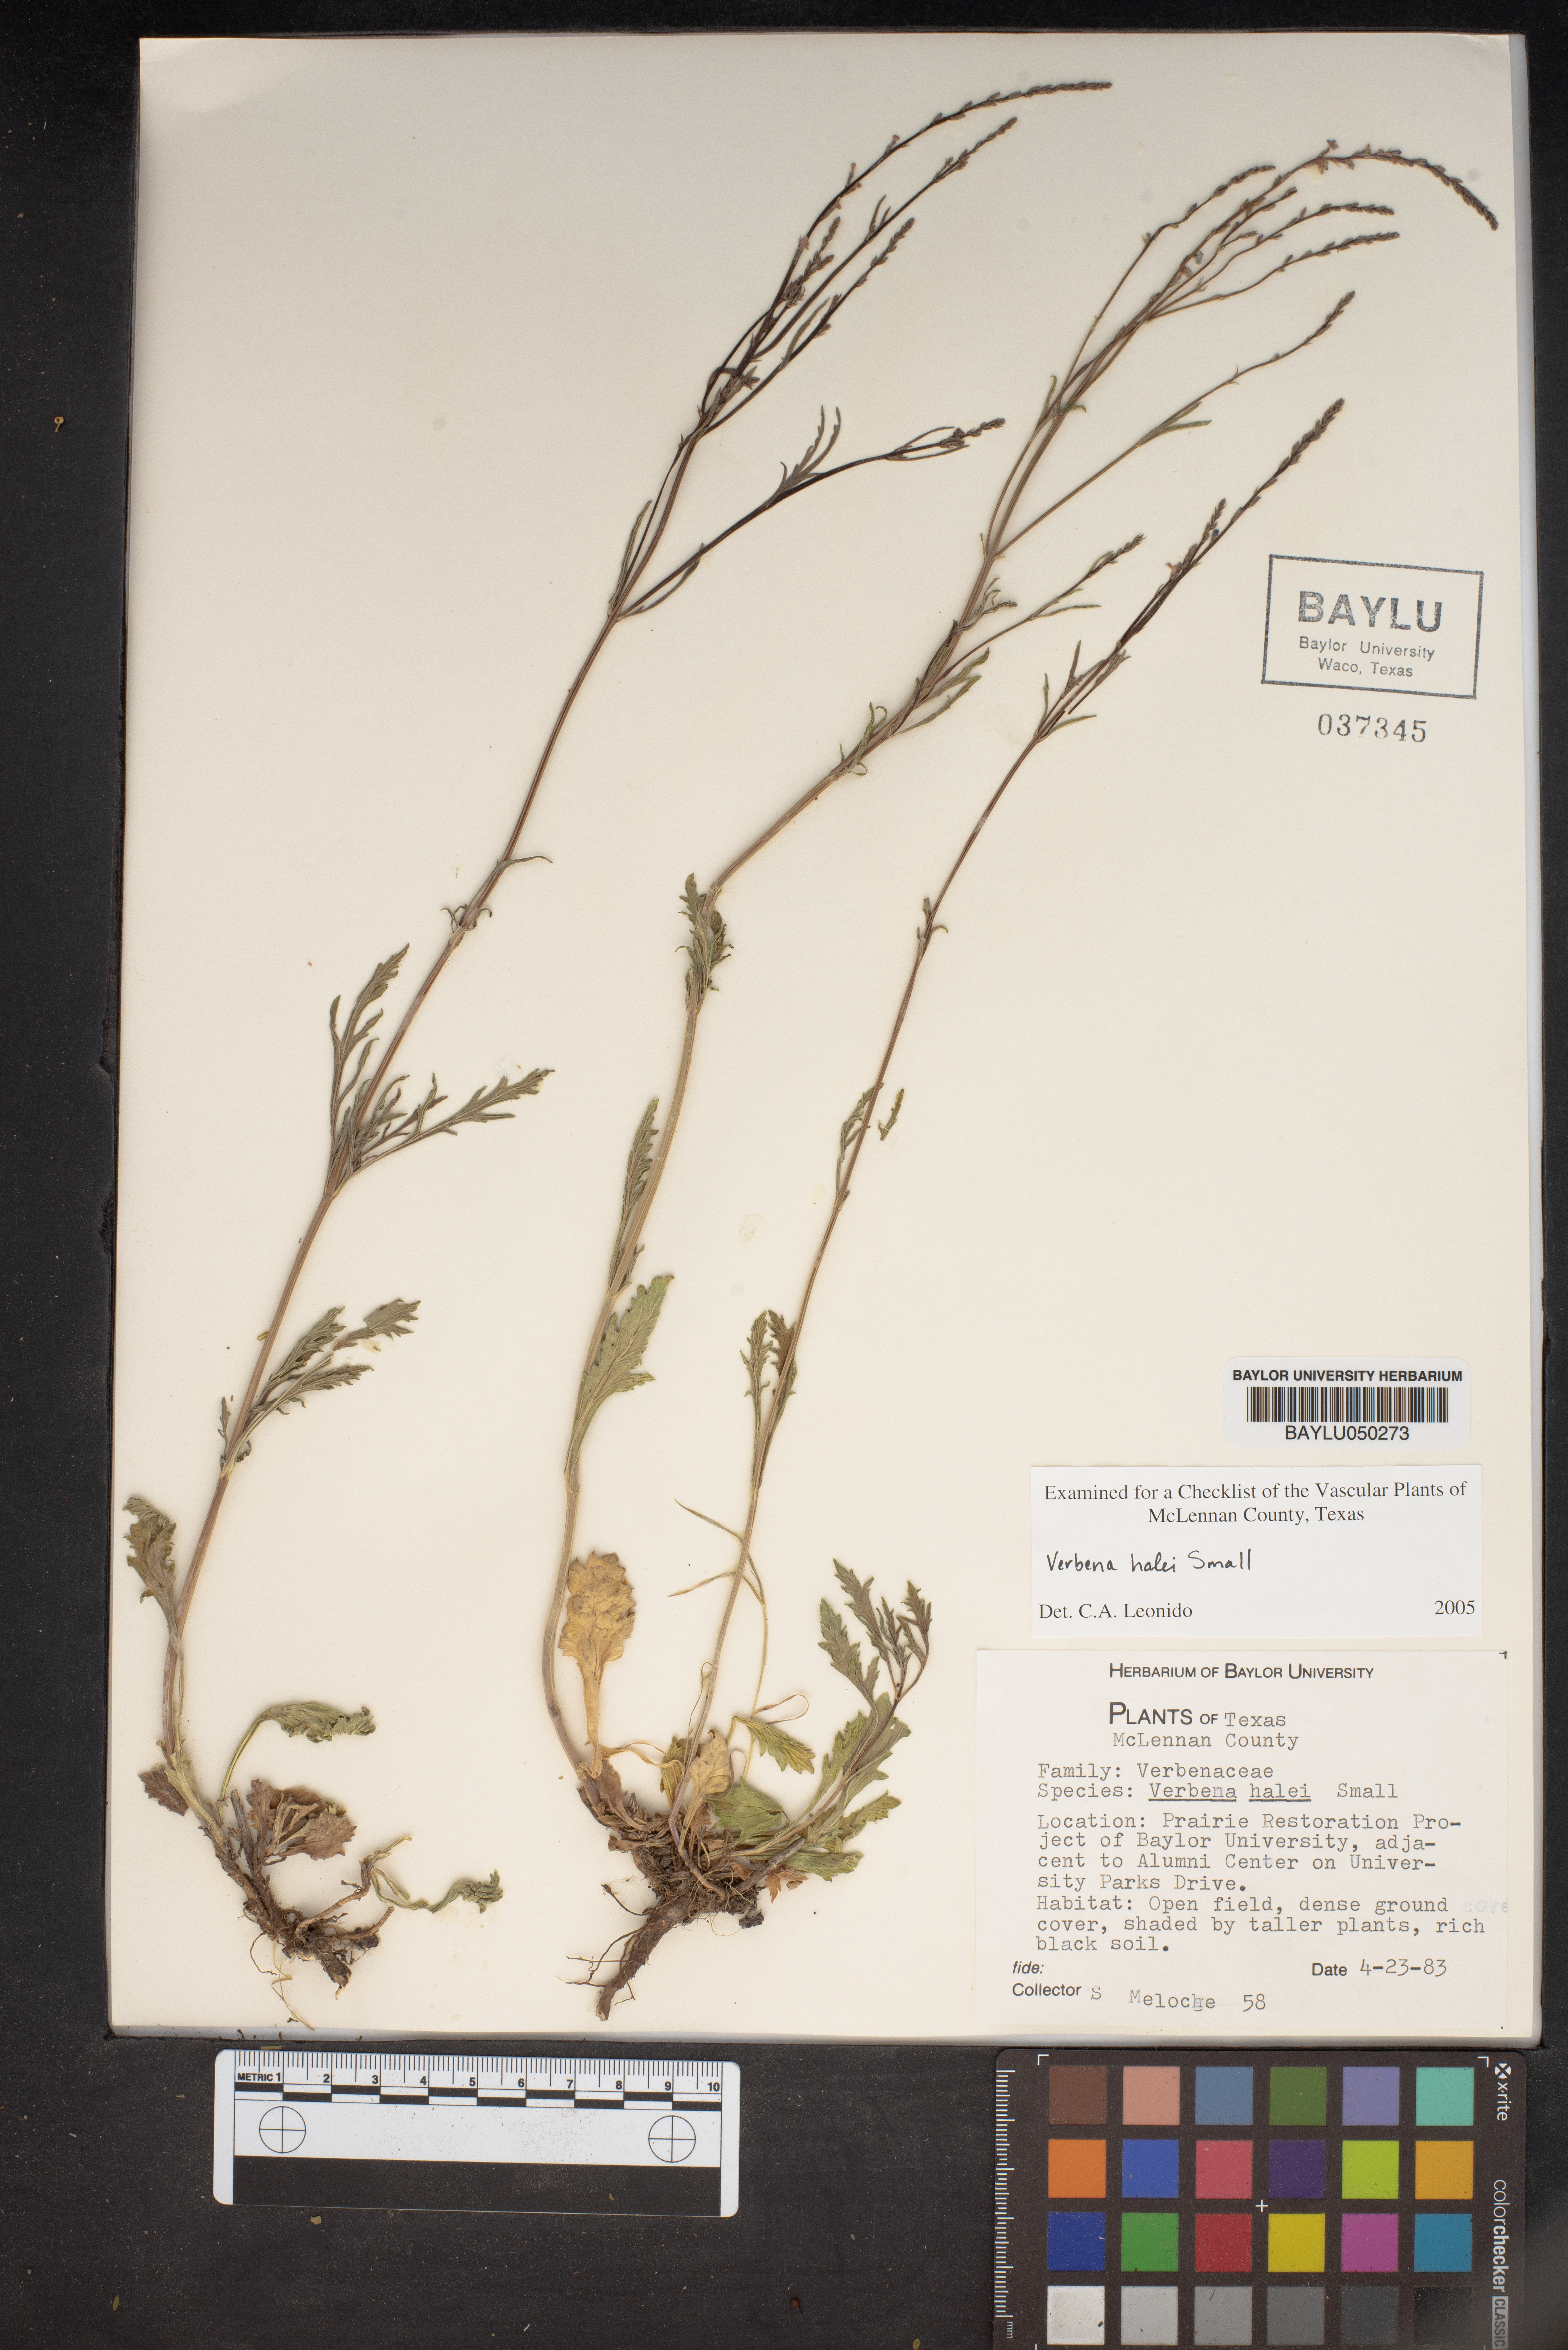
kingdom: Plantae
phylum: Tracheophyta
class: Magnoliopsida
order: Lamiales
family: Verbenaceae
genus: Verbena
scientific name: Verbena halei
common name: Texas vervain
